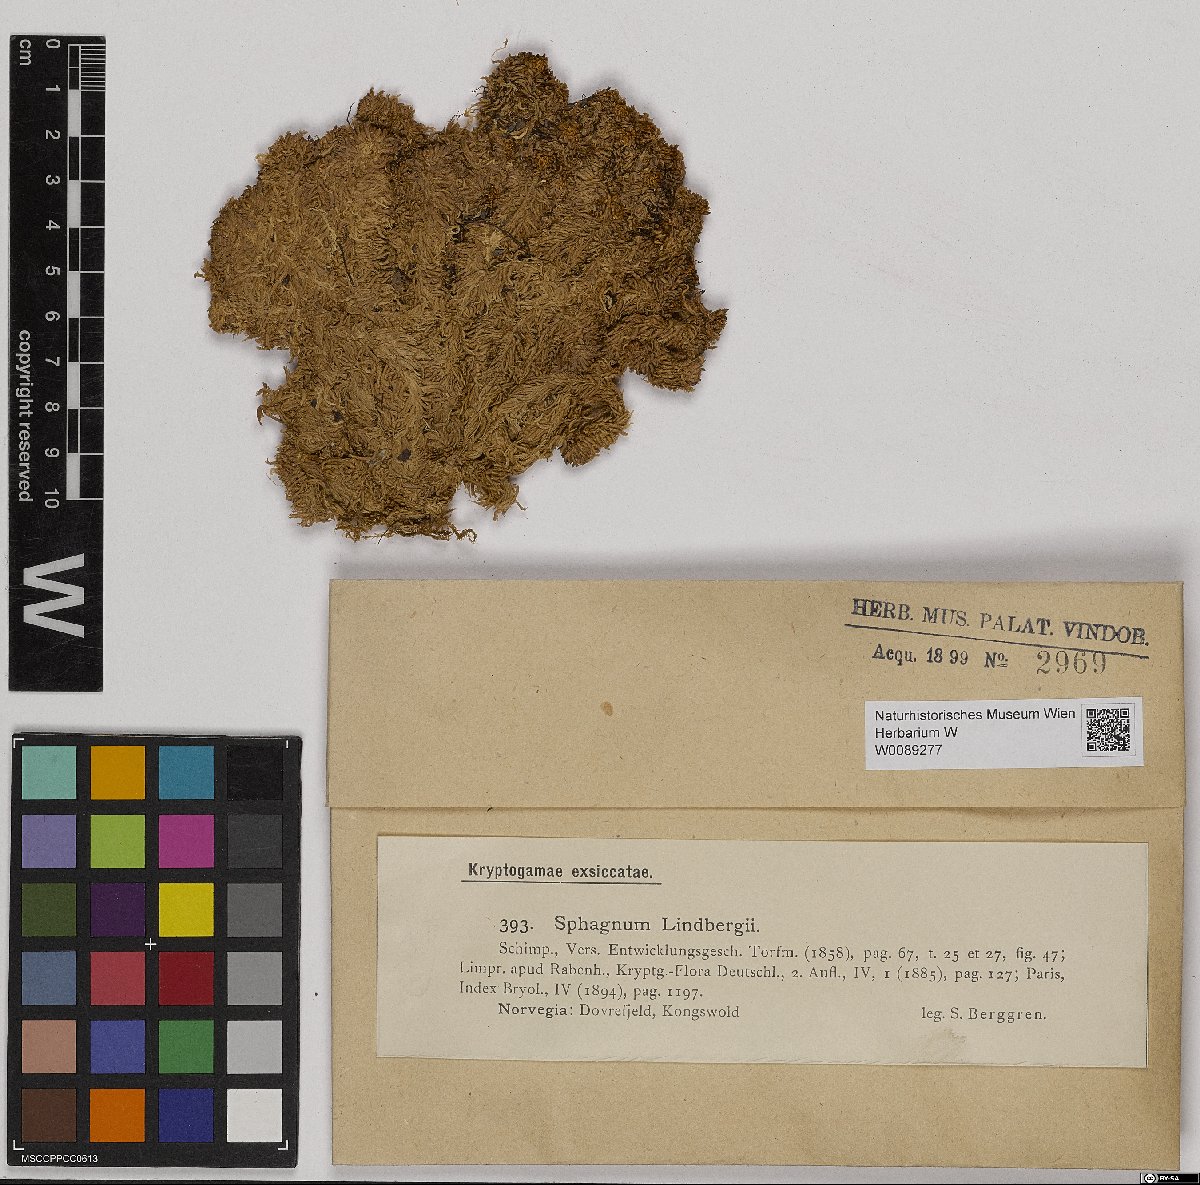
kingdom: Plantae
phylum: Bryophyta
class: Sphagnopsida
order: Sphagnales
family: Sphagnaceae
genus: Sphagnum
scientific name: Sphagnum lindbergii
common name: Lindberg's peat moss
